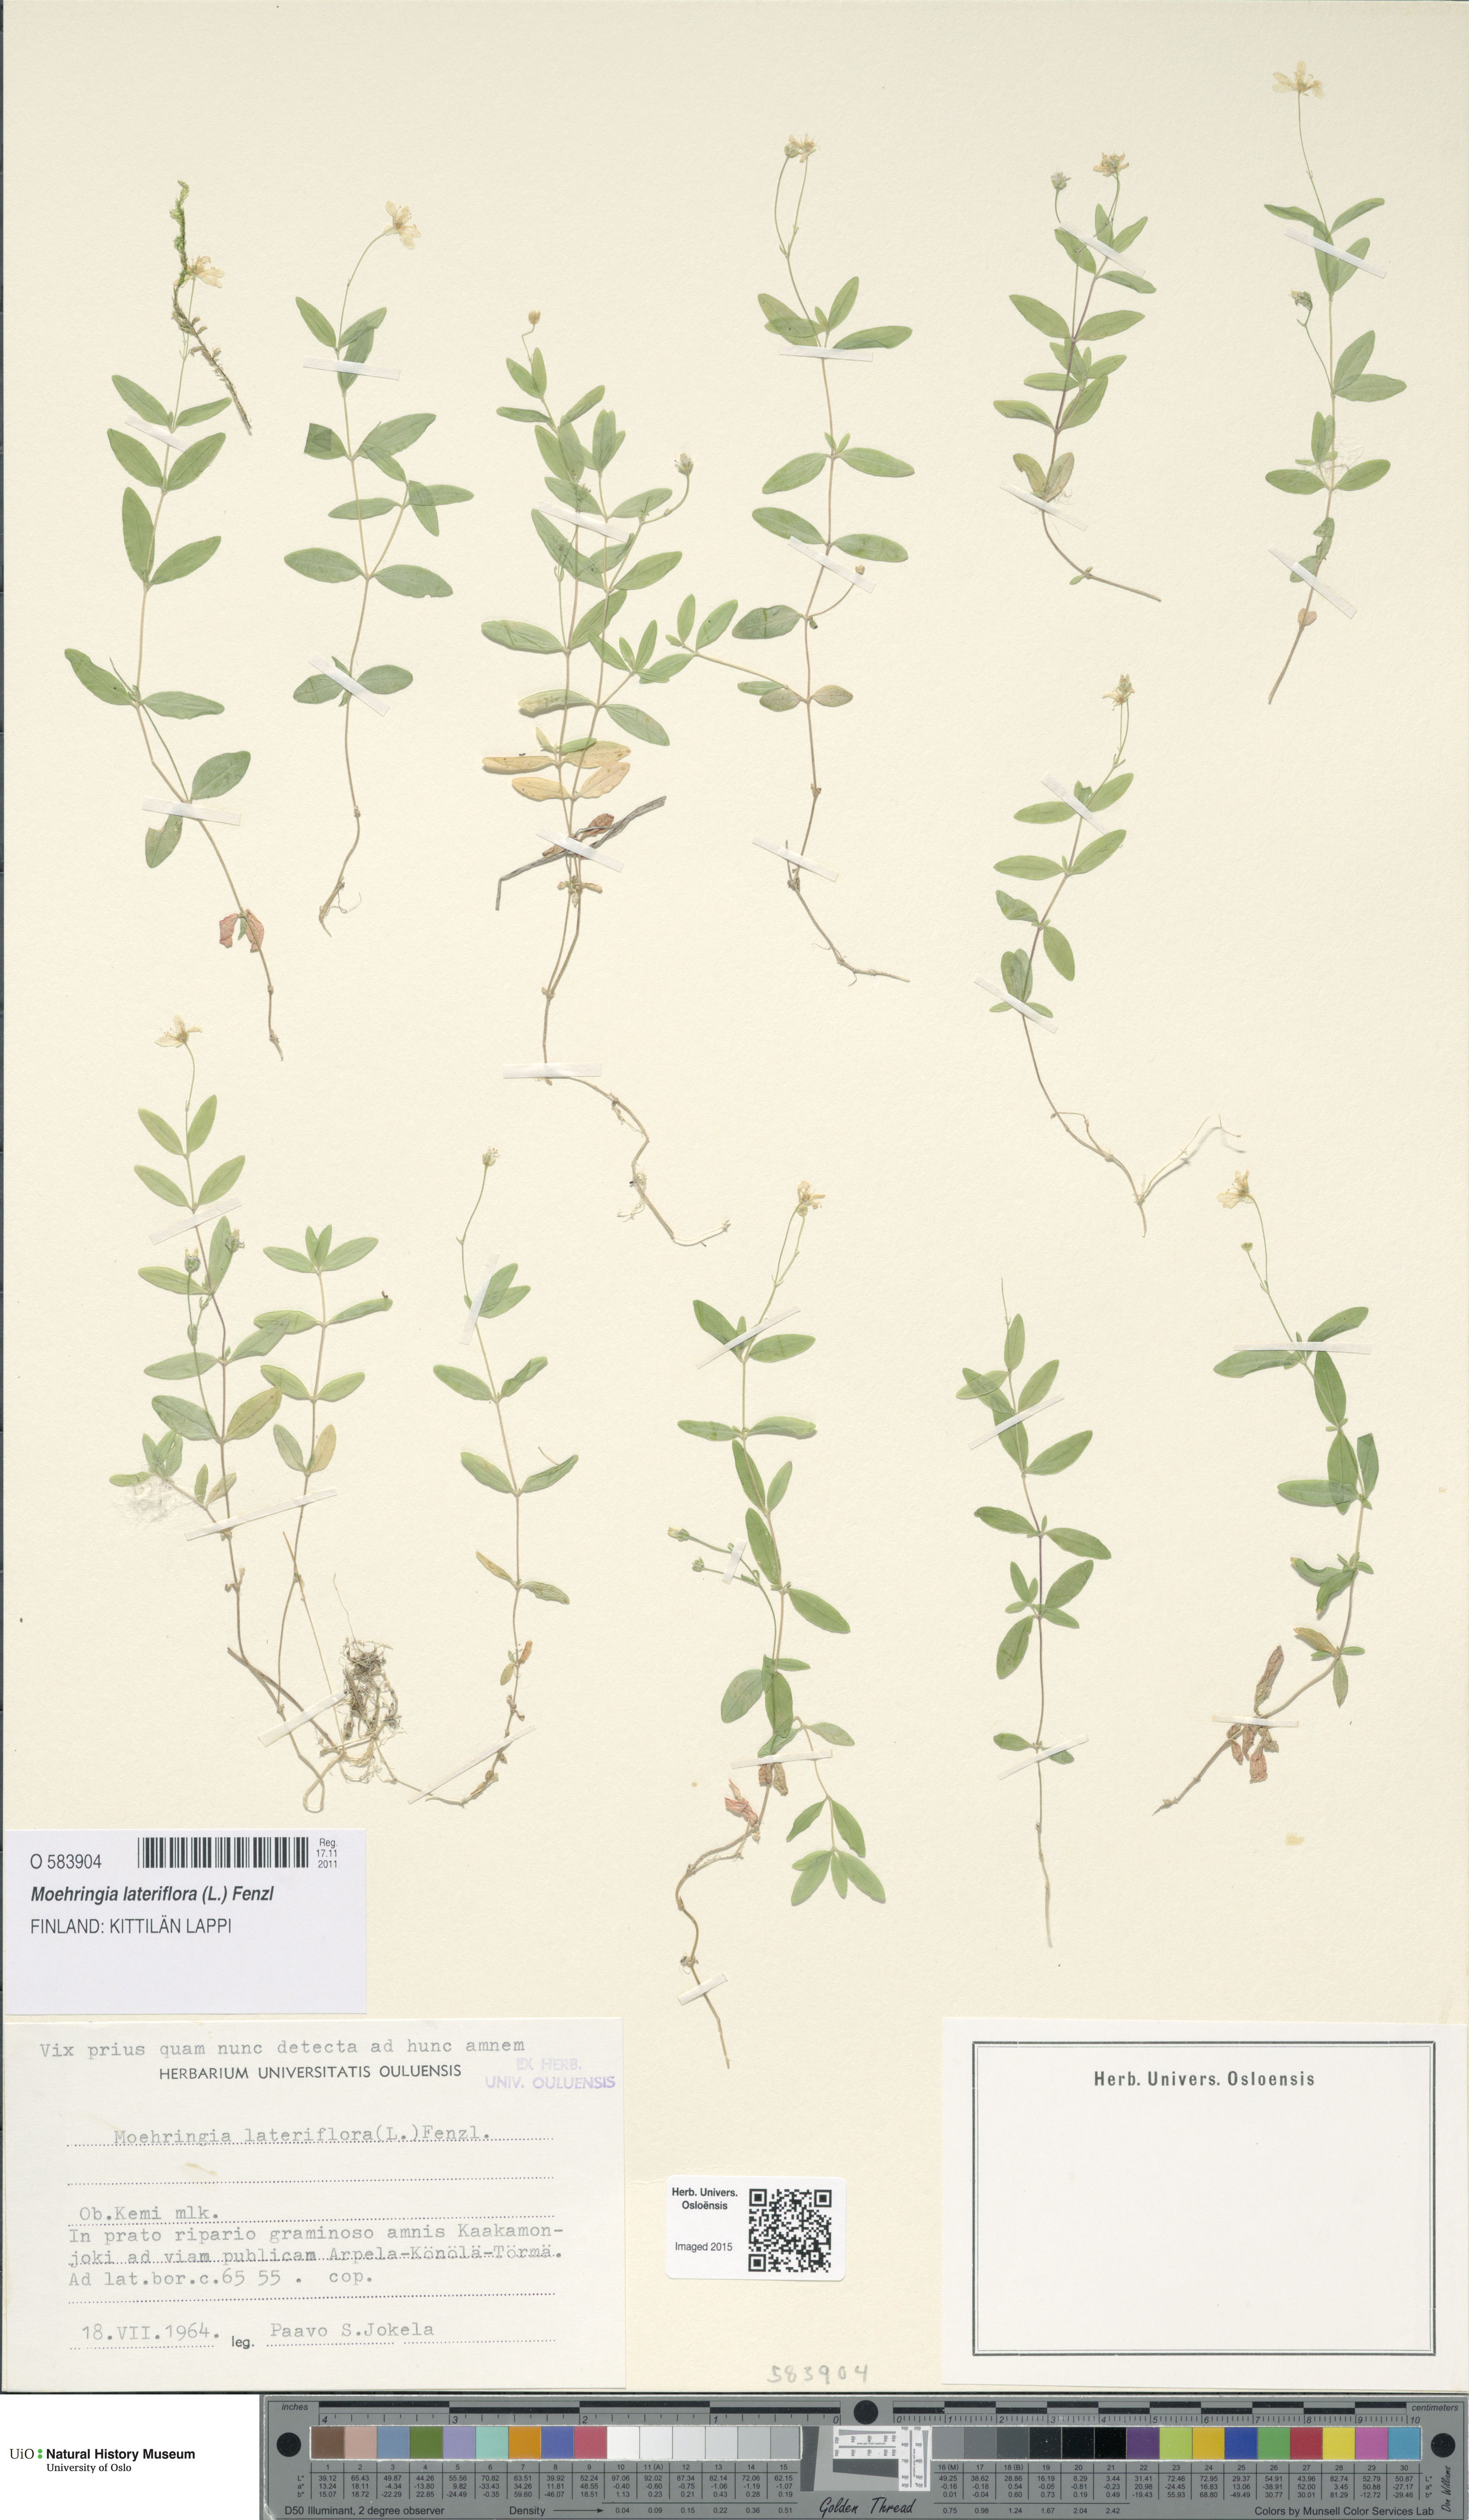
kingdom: Plantae
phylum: Tracheophyta
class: Magnoliopsida
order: Caryophyllales
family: Caryophyllaceae
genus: Moehringia
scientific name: Moehringia lateriflora
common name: Blunt-leaved sandwort
